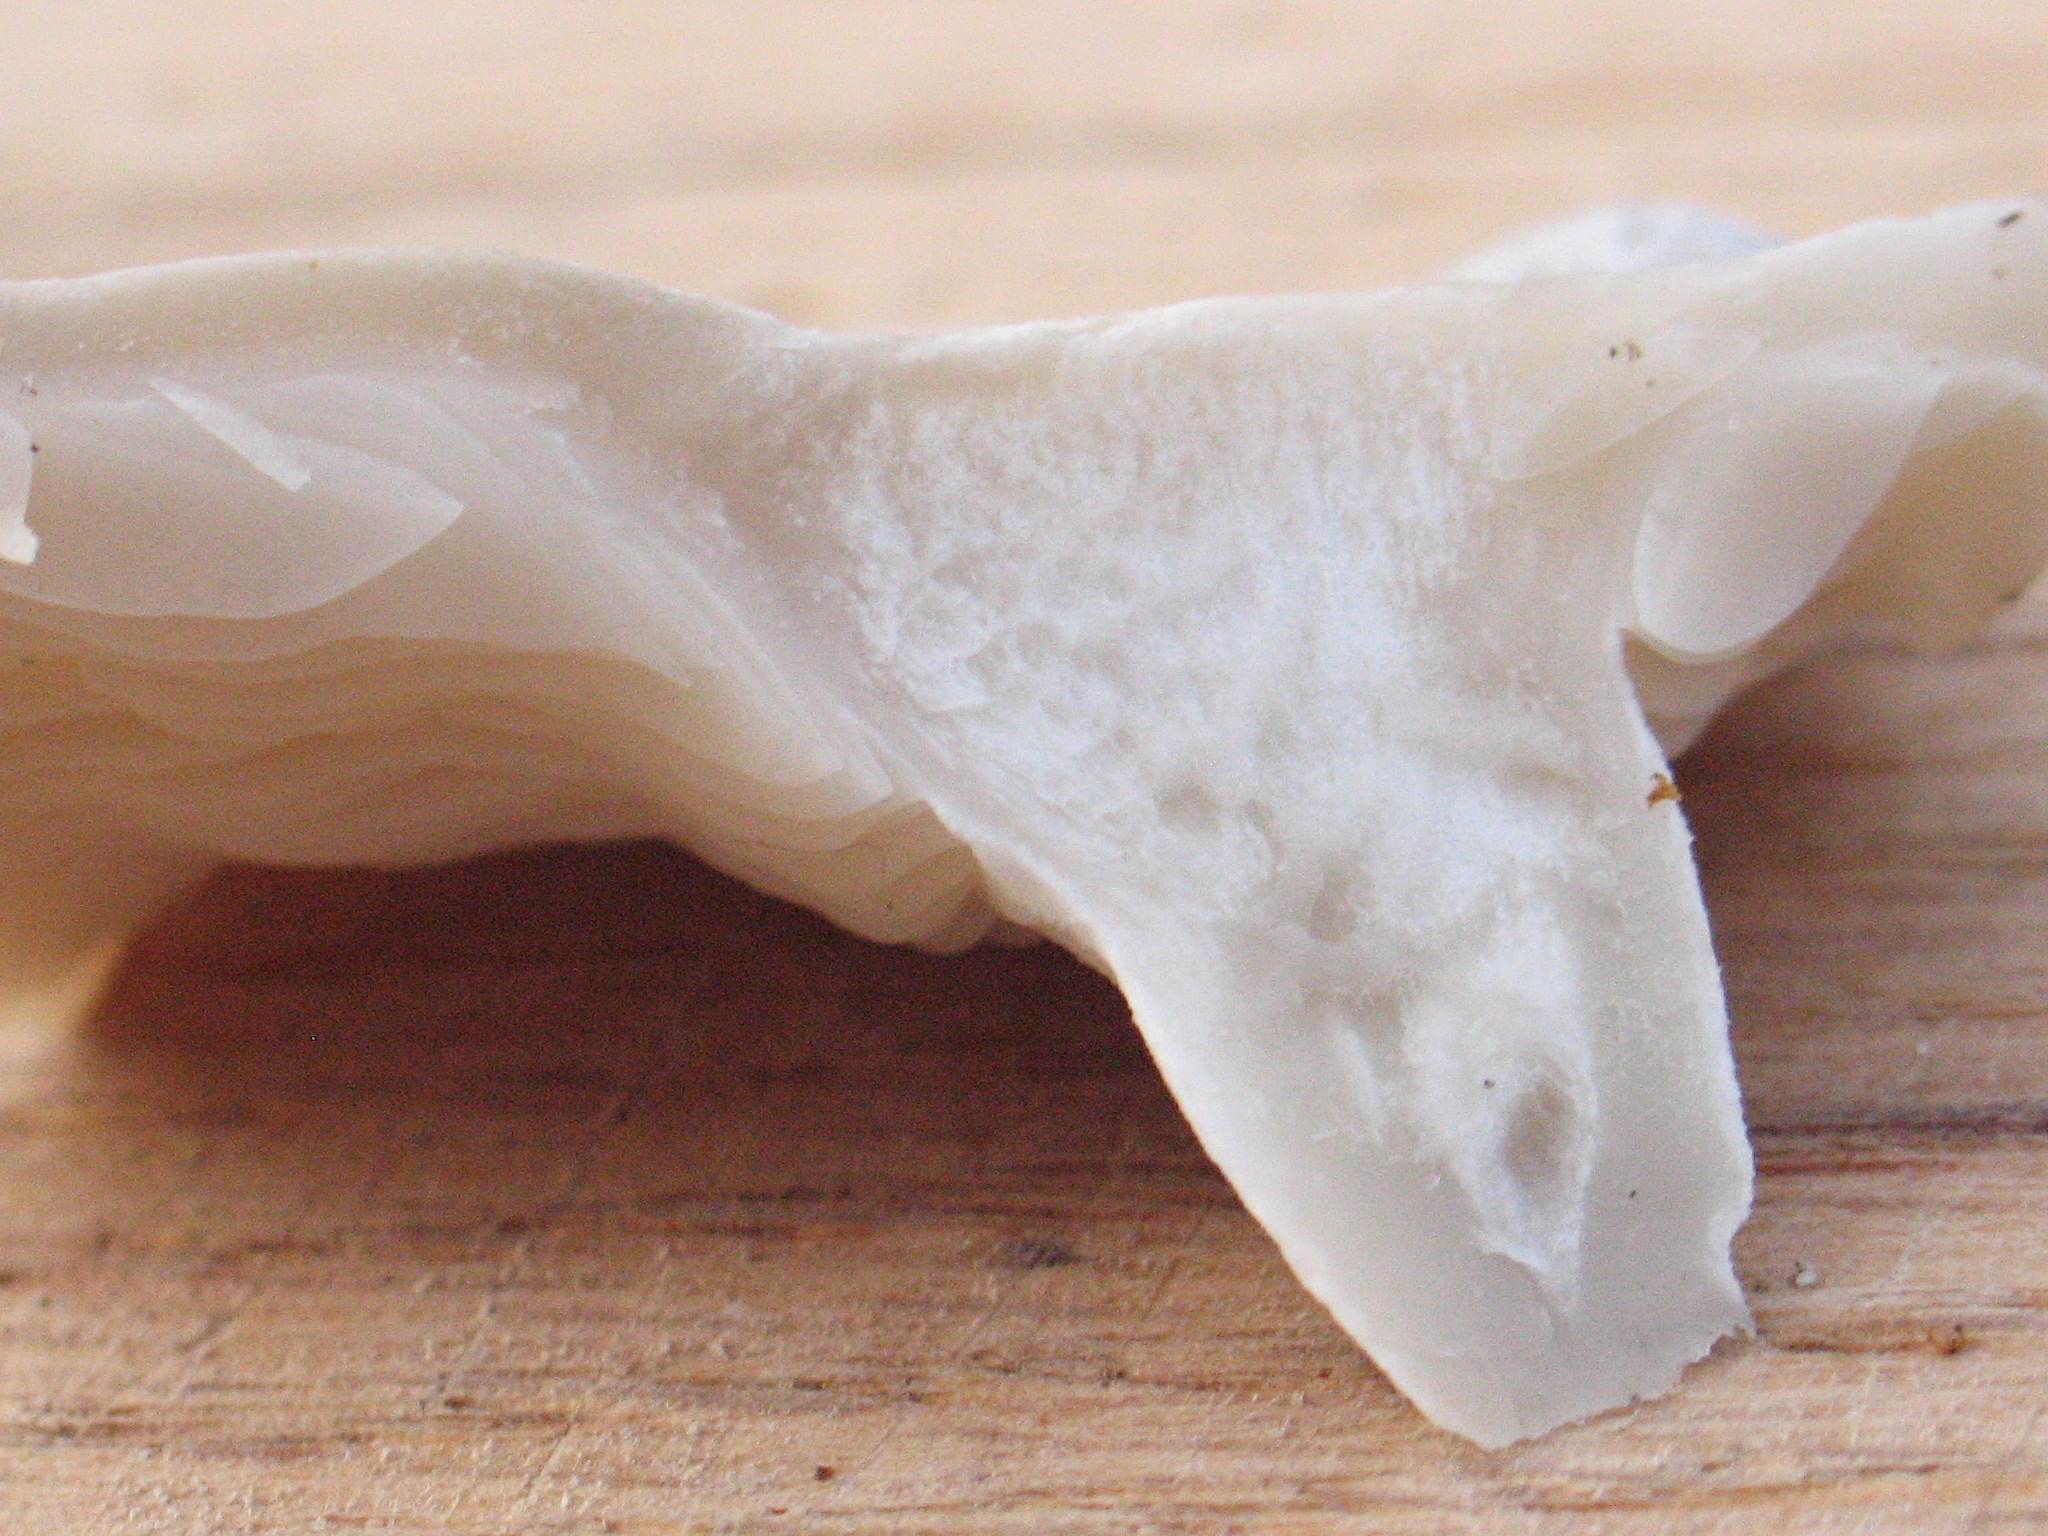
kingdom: Fungi
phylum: Basidiomycota
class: Agaricomycetes
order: Agaricales
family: Tricholomataceae
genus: Leucocybe
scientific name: Leucocybe connata
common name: knippe-tragthat
